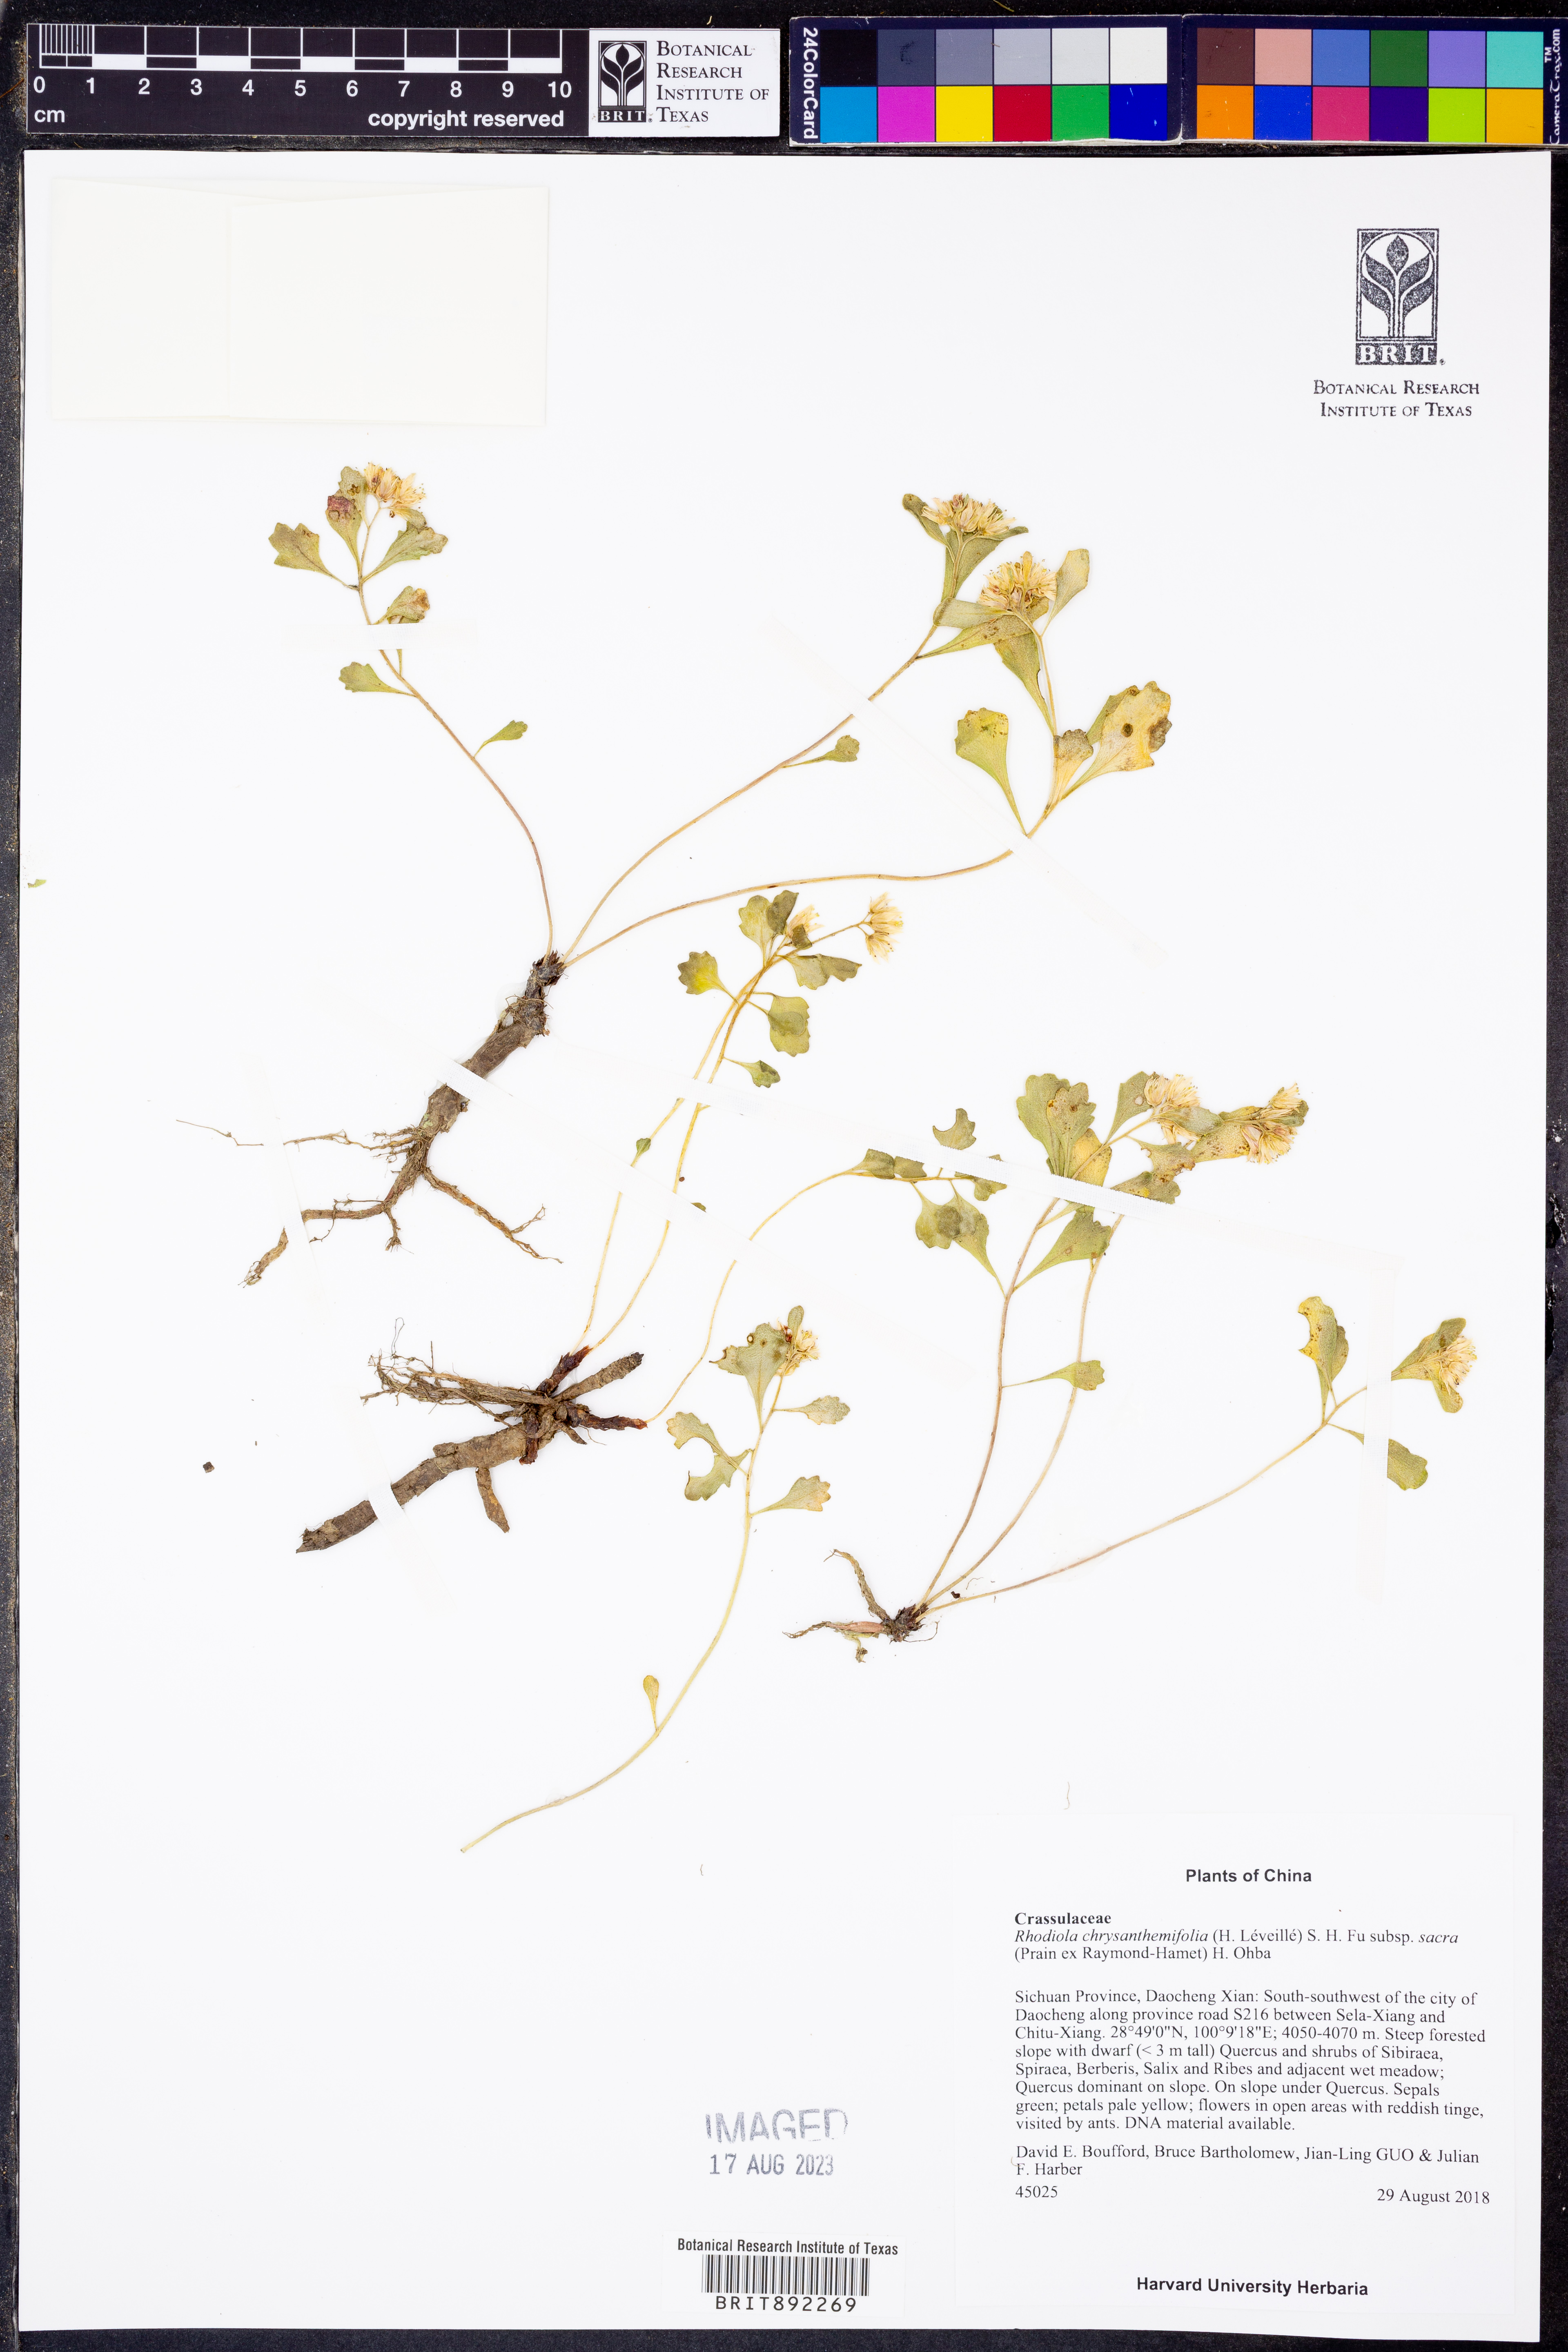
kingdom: Plantae
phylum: Tracheophyta
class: Magnoliopsida
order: Saxifragales
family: Crassulaceae
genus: Rhodiola
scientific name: Rhodiola chrysanthemifolia
